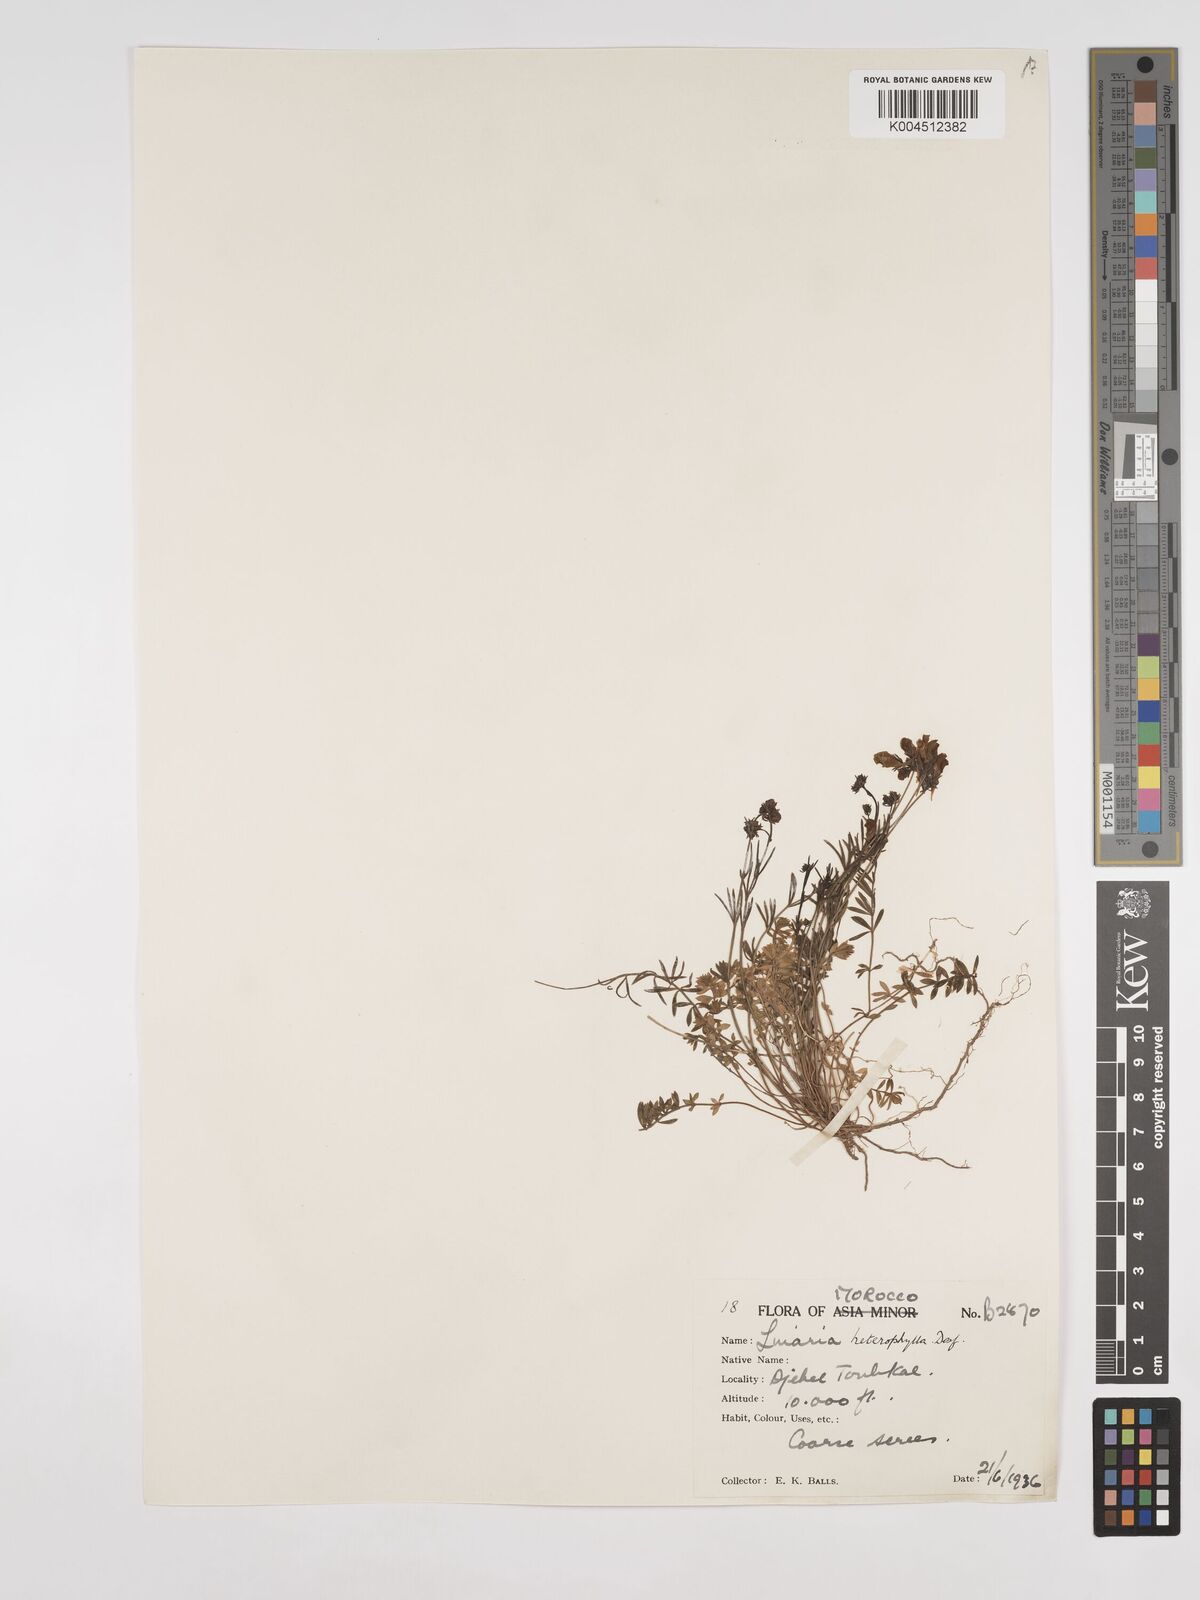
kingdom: Plantae
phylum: Tracheophyta
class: Magnoliopsida
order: Lamiales
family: Plantaginaceae
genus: Linaria
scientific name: Linaria
